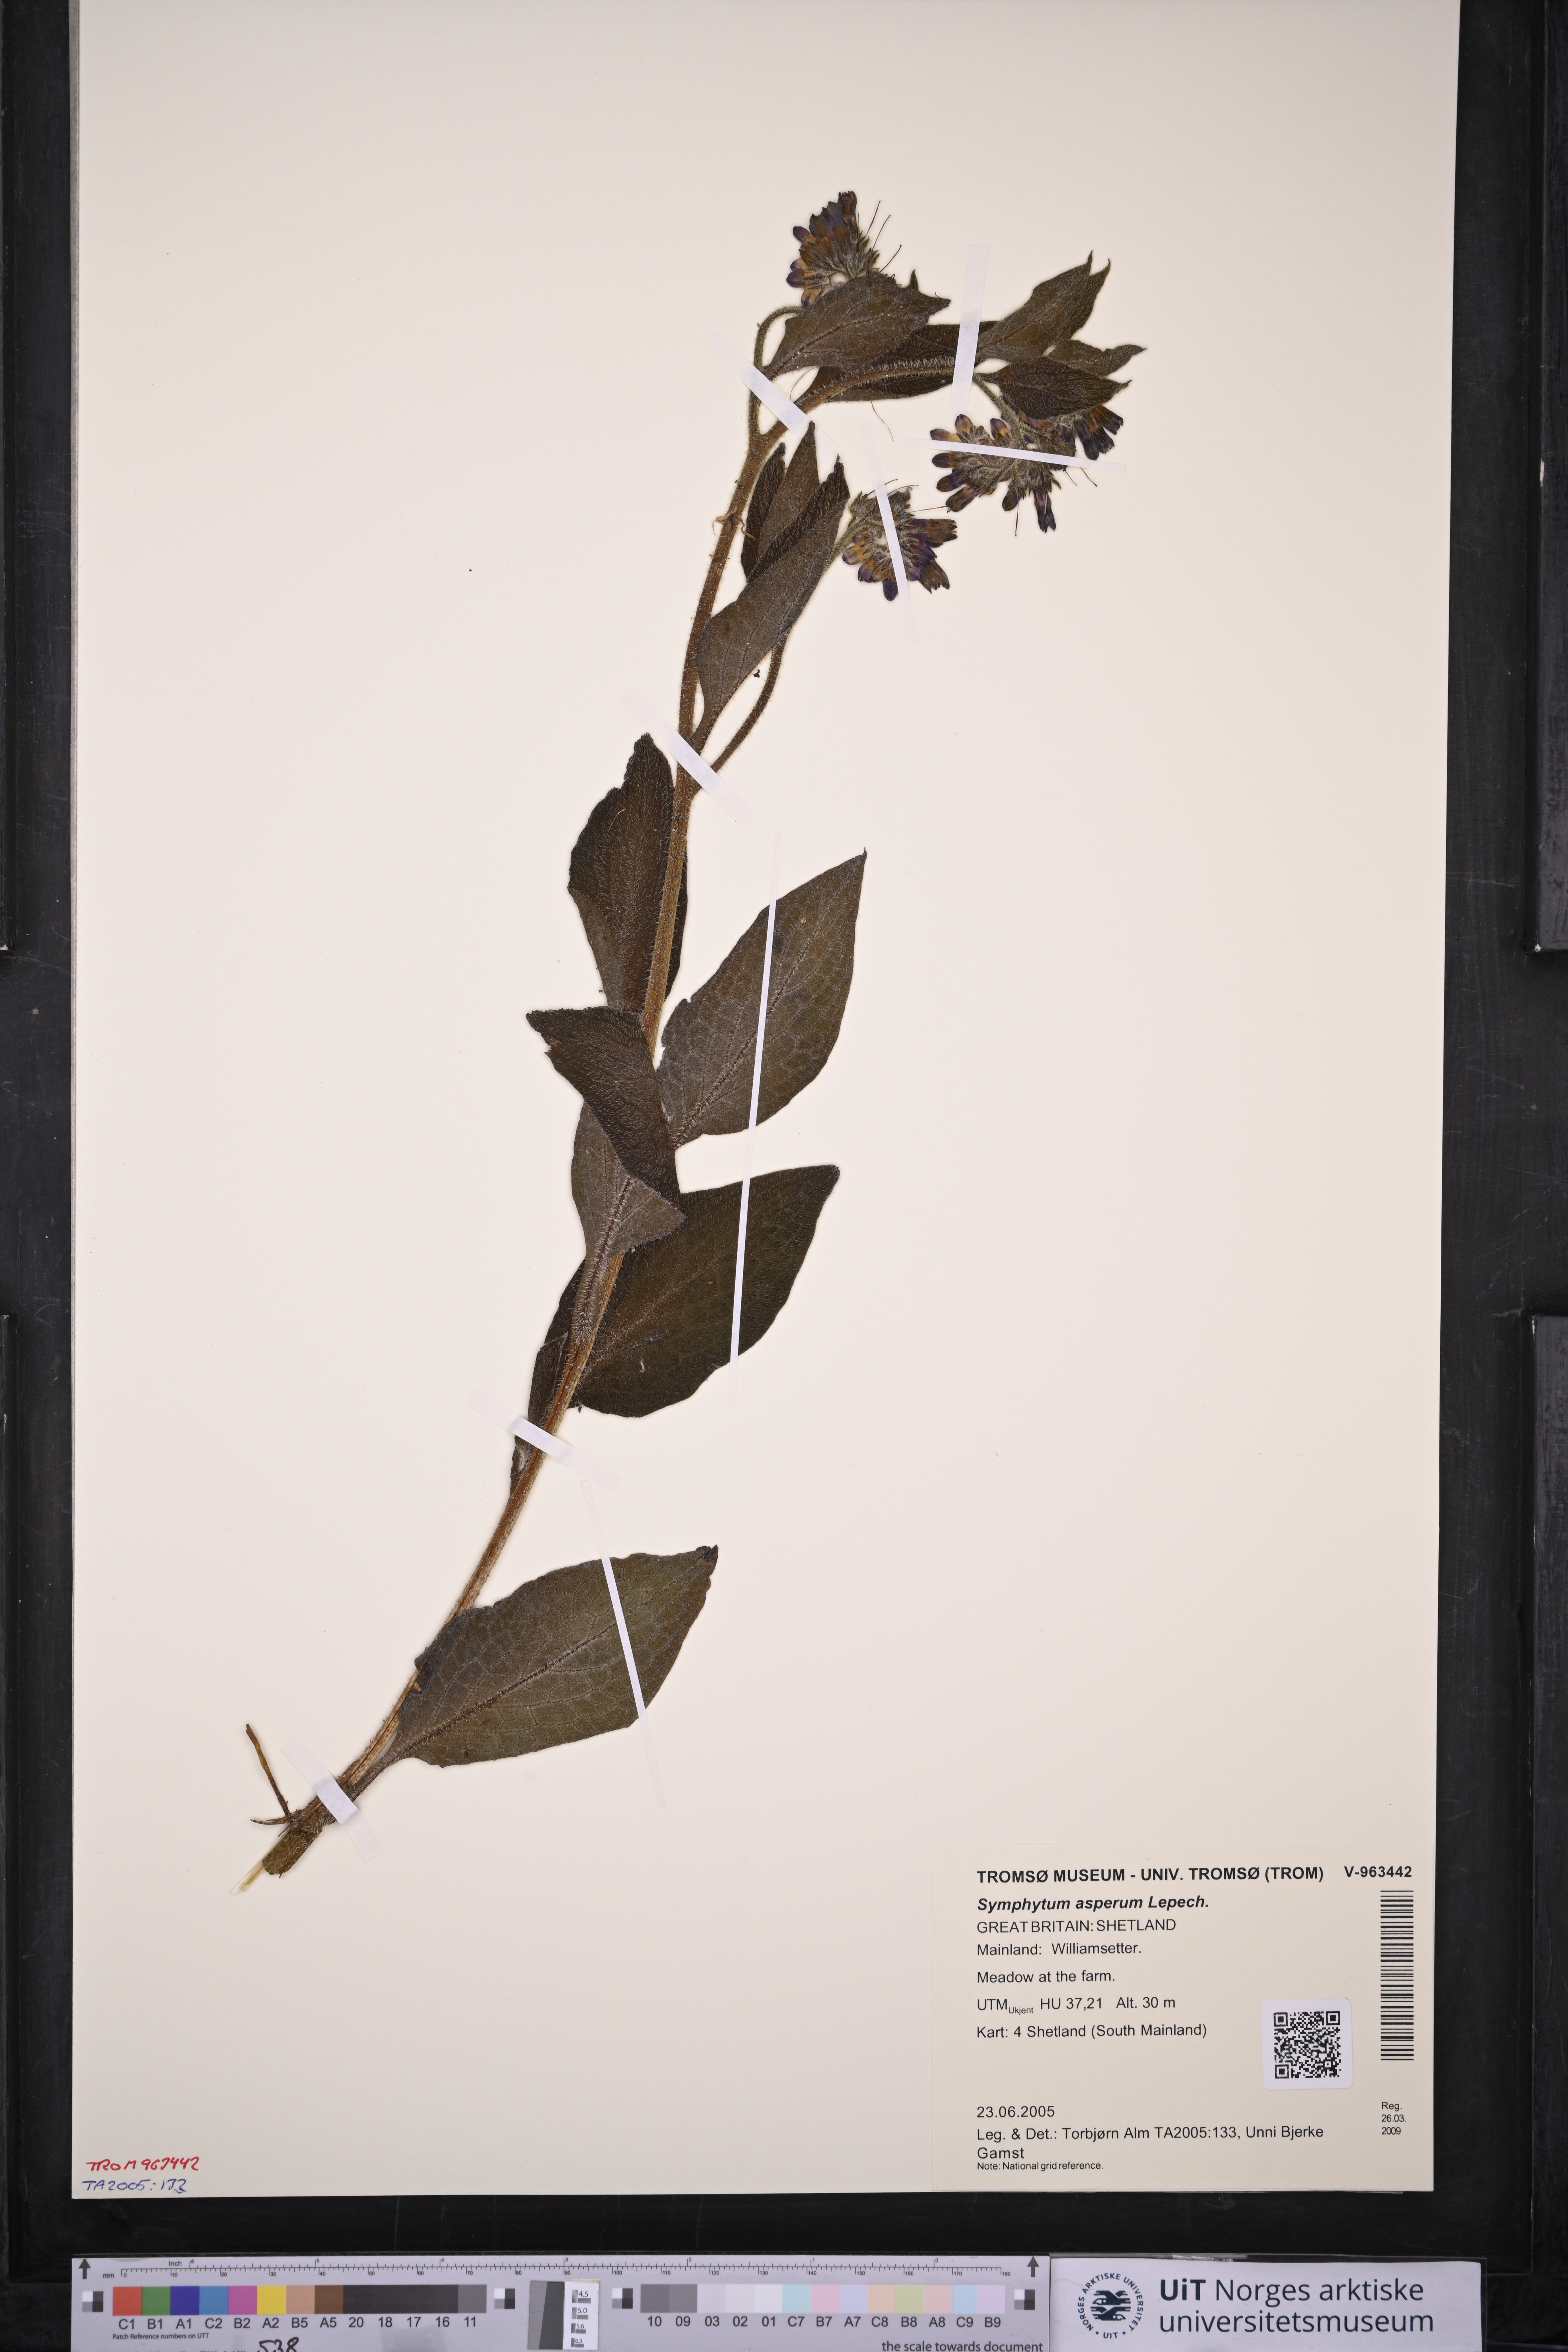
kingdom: Plantae
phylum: Tracheophyta
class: Magnoliopsida
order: Boraginales
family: Boraginaceae
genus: Symphytum
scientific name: Symphytum asperum
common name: Prickly comfrey
